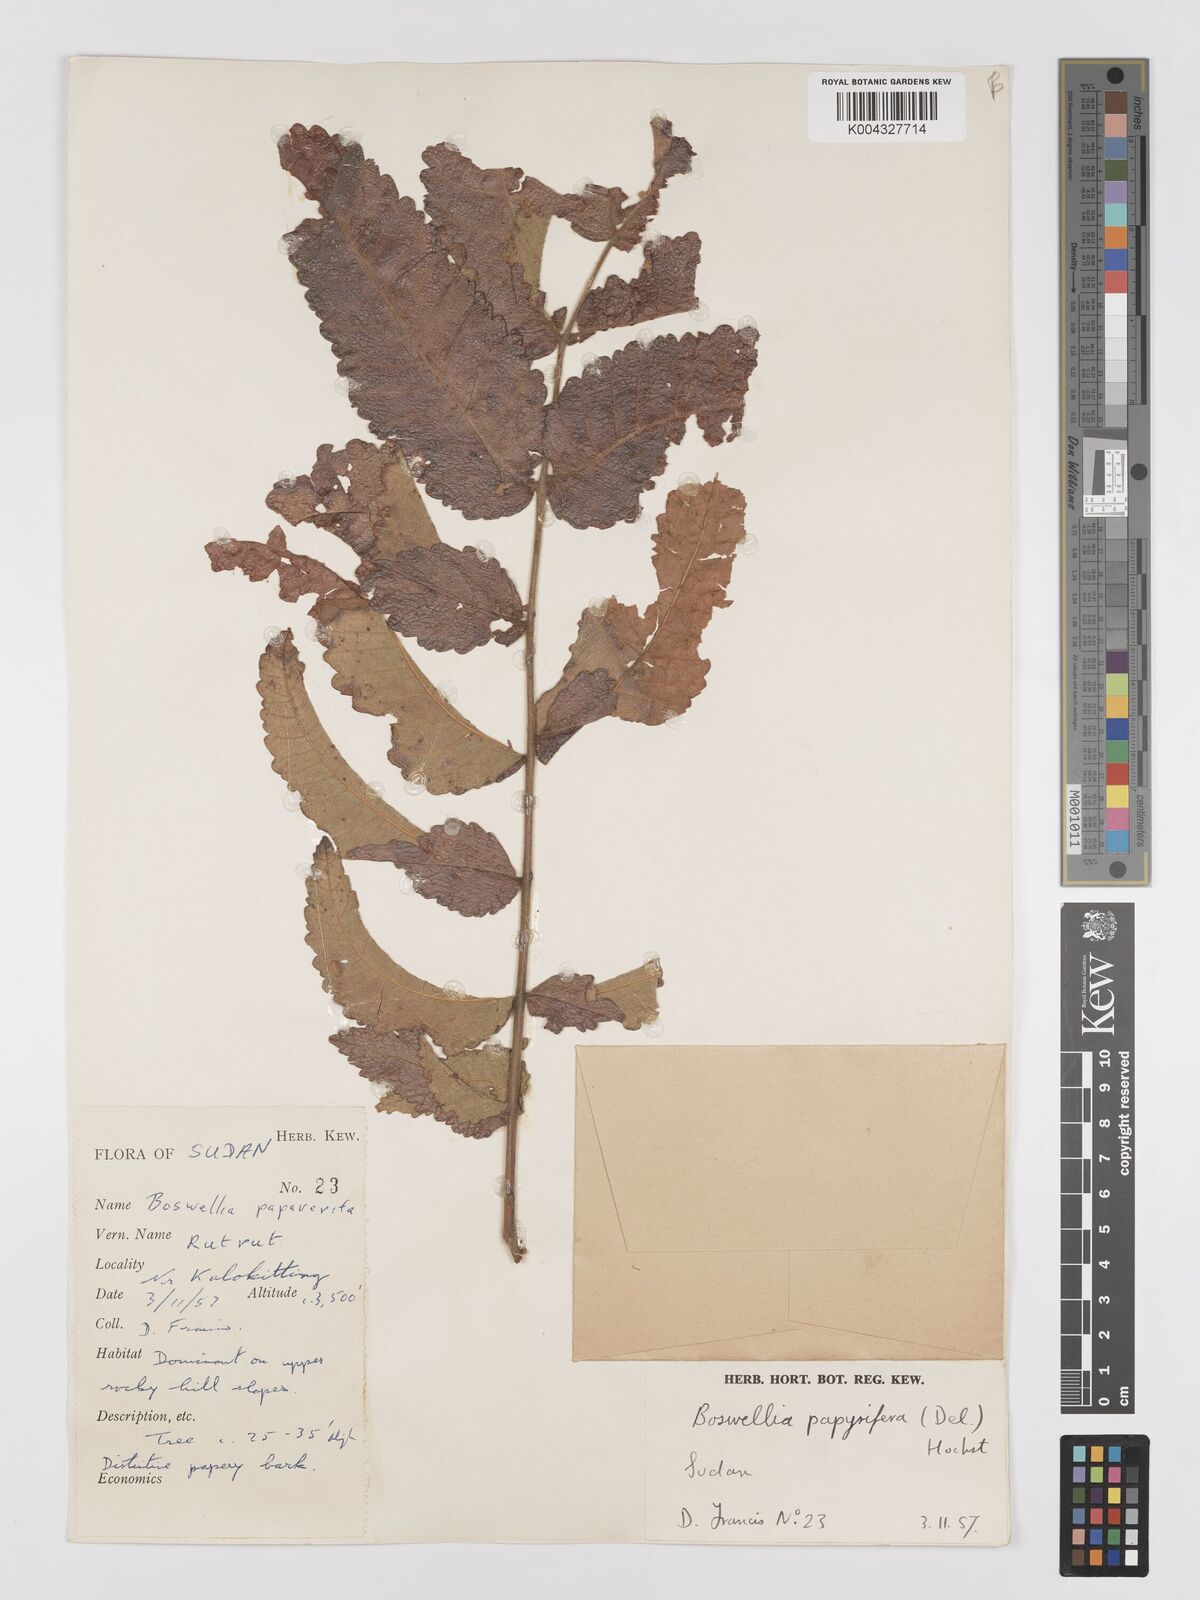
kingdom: Plantae
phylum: Tracheophyta
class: Magnoliopsida
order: Sapindales
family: Burseraceae
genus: Boswellia
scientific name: Boswellia papyrifera
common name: Sudanese frankincense
